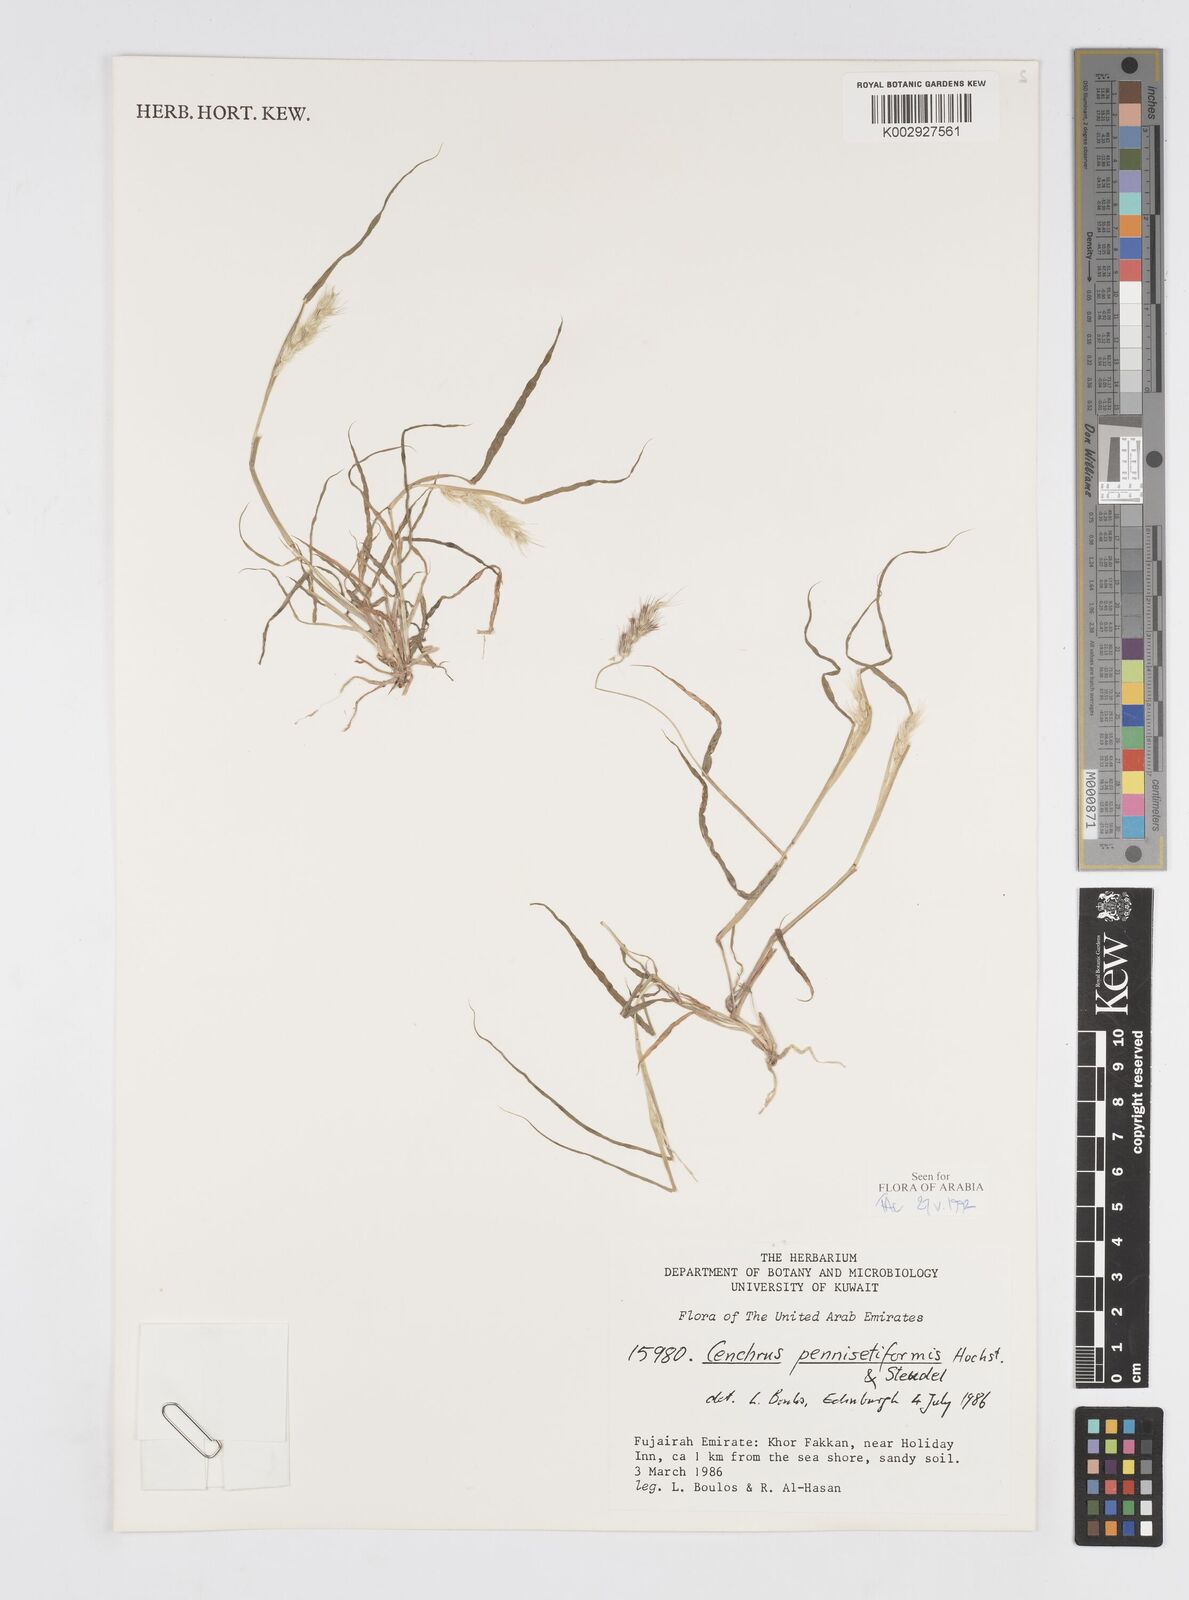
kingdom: Plantae
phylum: Tracheophyta
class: Liliopsida
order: Poales
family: Poaceae
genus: Cenchrus
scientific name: Cenchrus pennisetiformis
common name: Cloncurry
